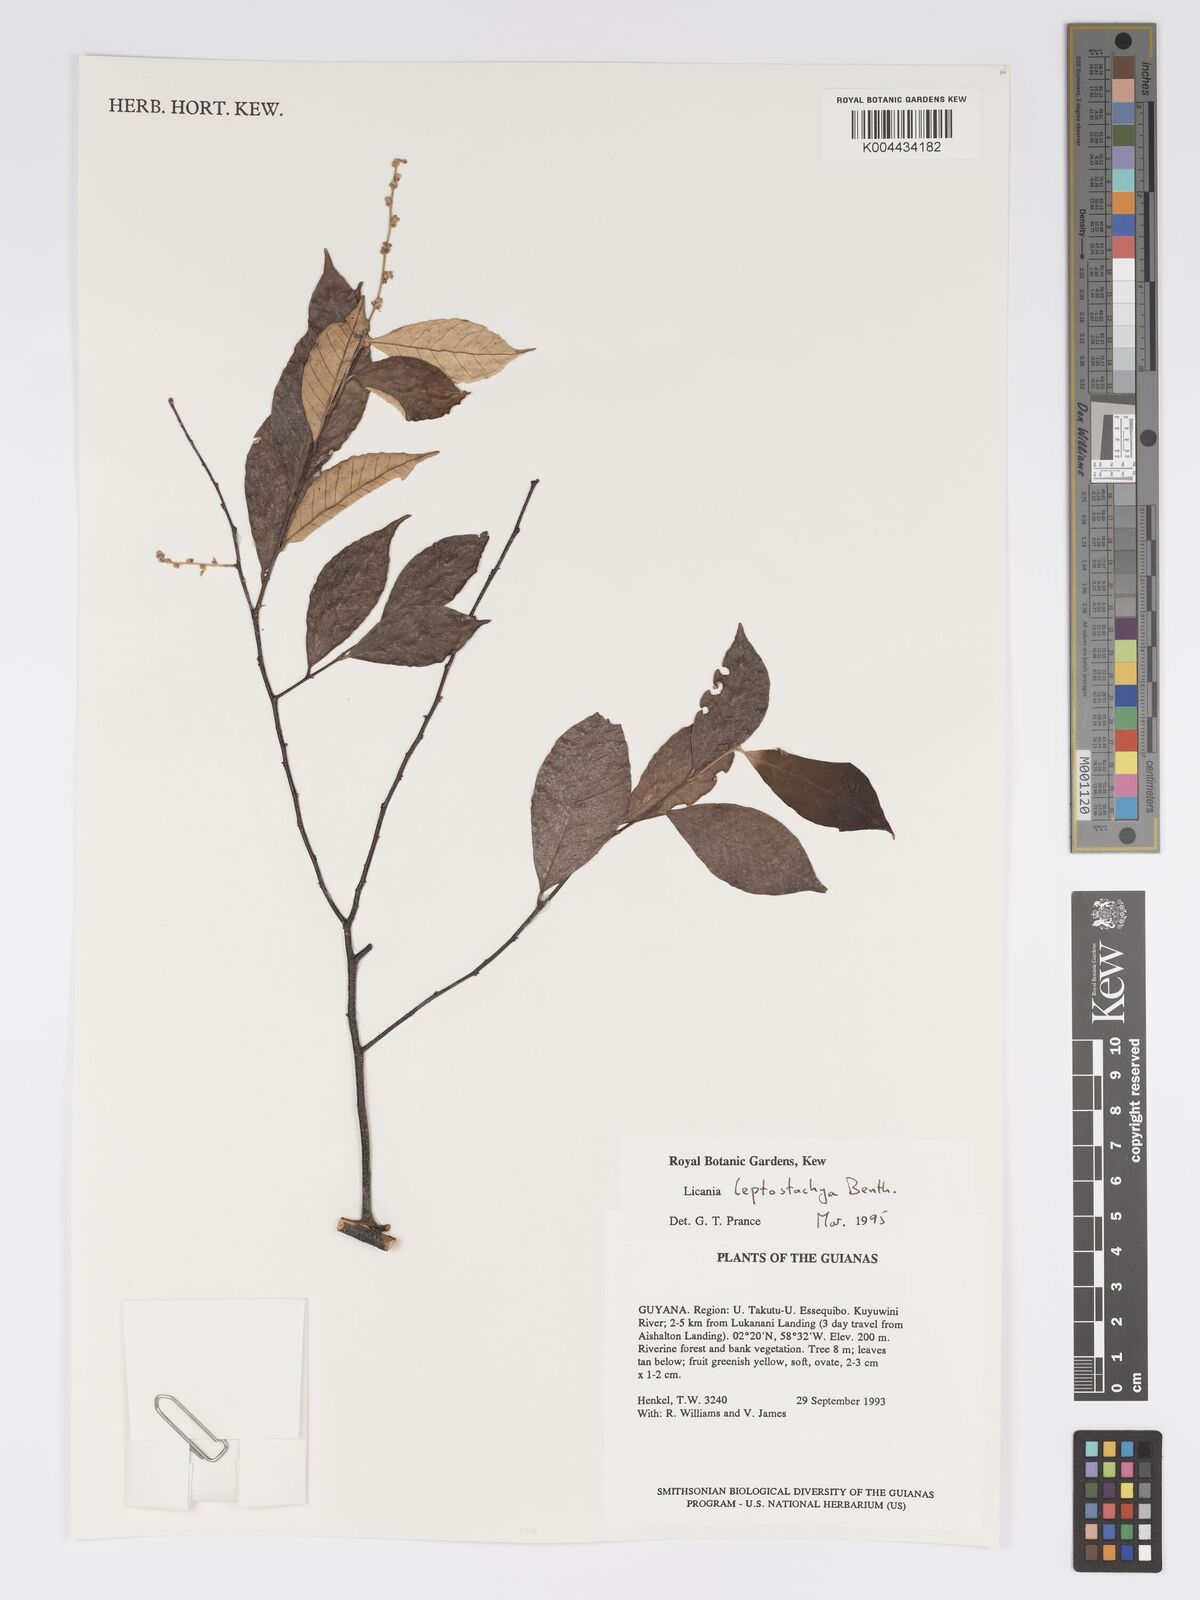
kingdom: Plantae
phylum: Tracheophyta
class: Magnoliopsida
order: Malpighiales
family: Chrysobalanaceae
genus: Licania
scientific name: Licania leptostachya
